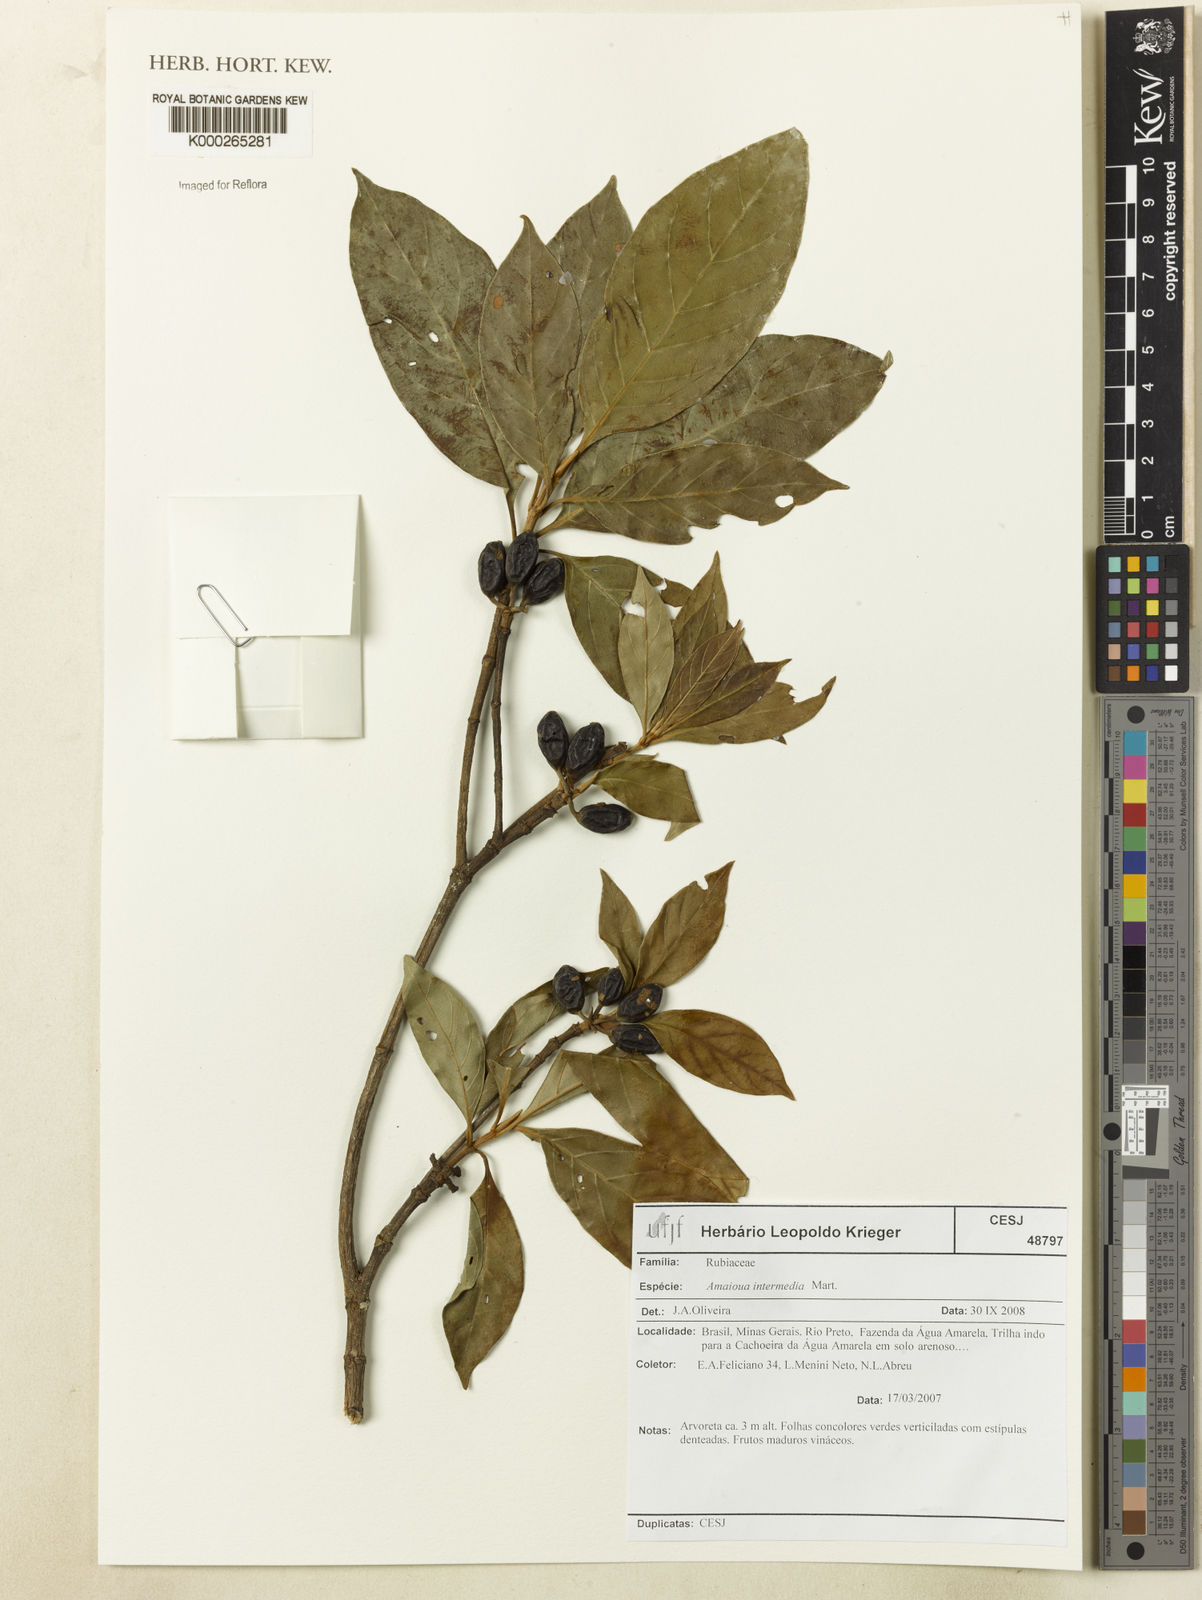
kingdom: Plantae
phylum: Tracheophyta
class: Magnoliopsida
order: Gentianales
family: Rubiaceae
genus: Amaioua
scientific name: Amaioua
